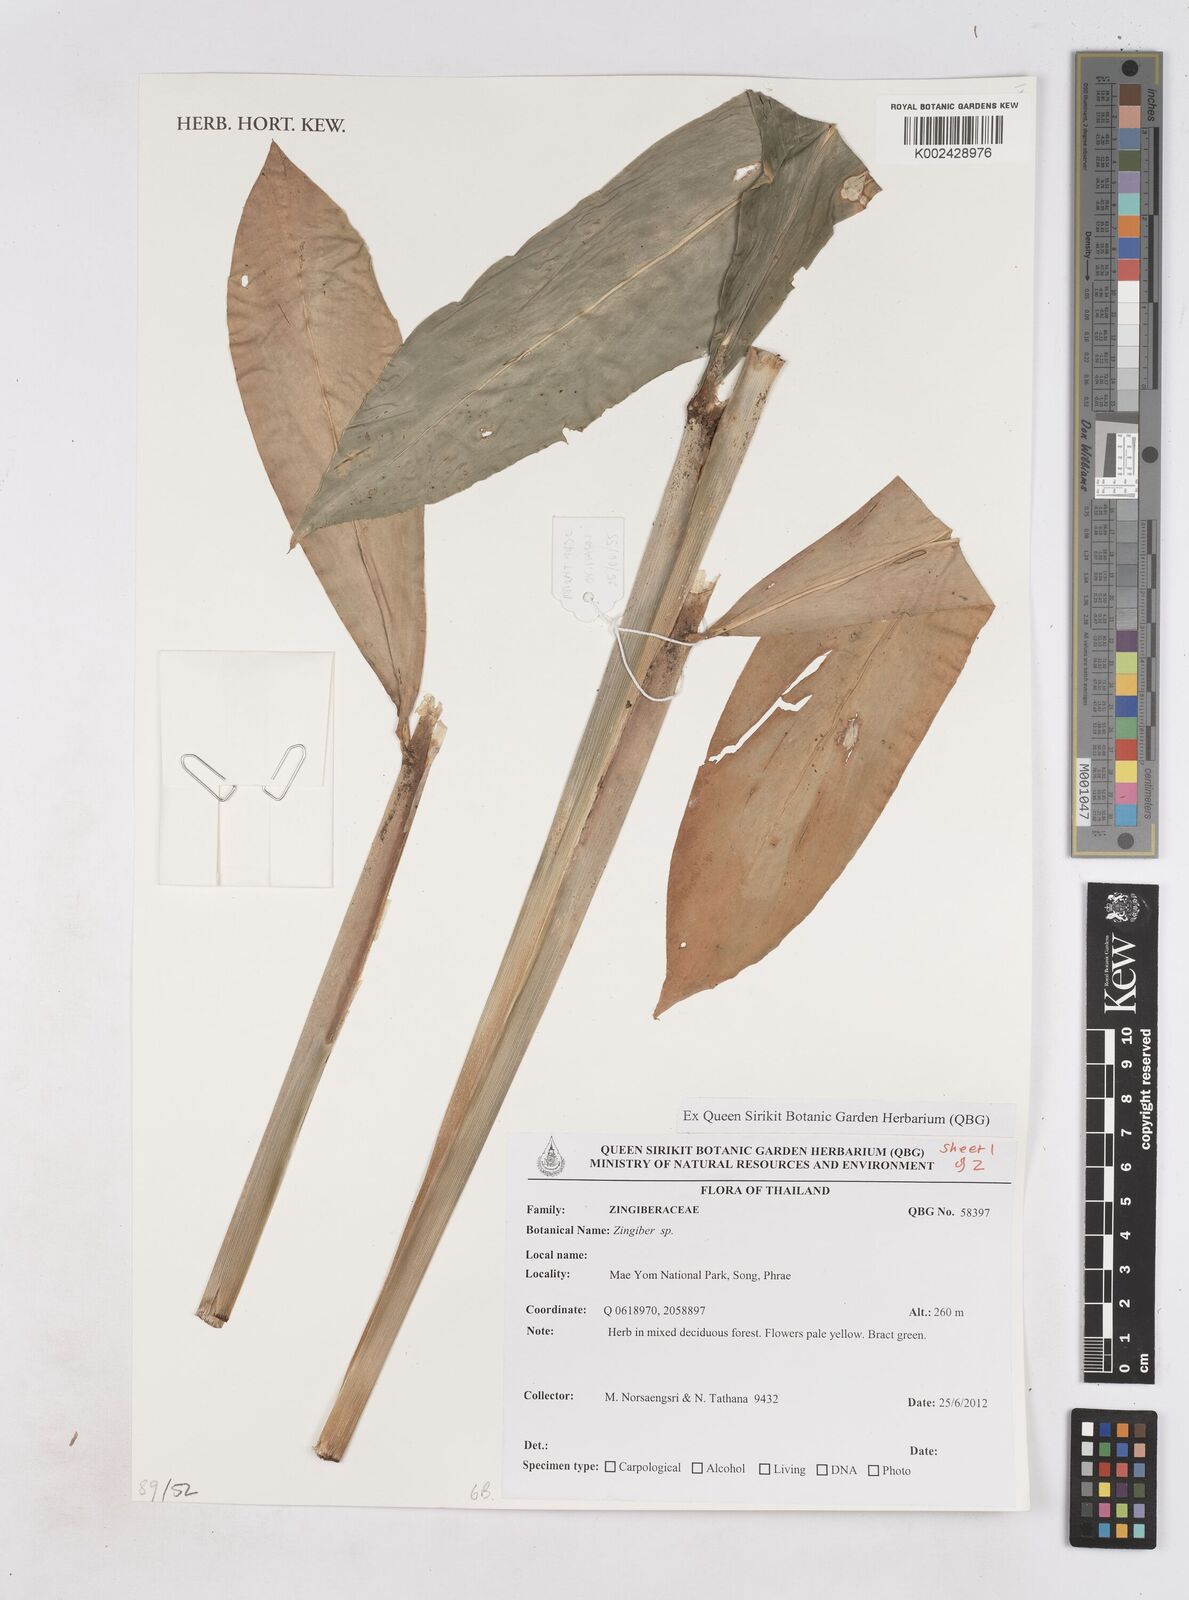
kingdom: Plantae
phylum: Tracheophyta
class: Liliopsida
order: Zingiberales
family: Zingiberaceae
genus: Zingiber
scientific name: Zingiber
